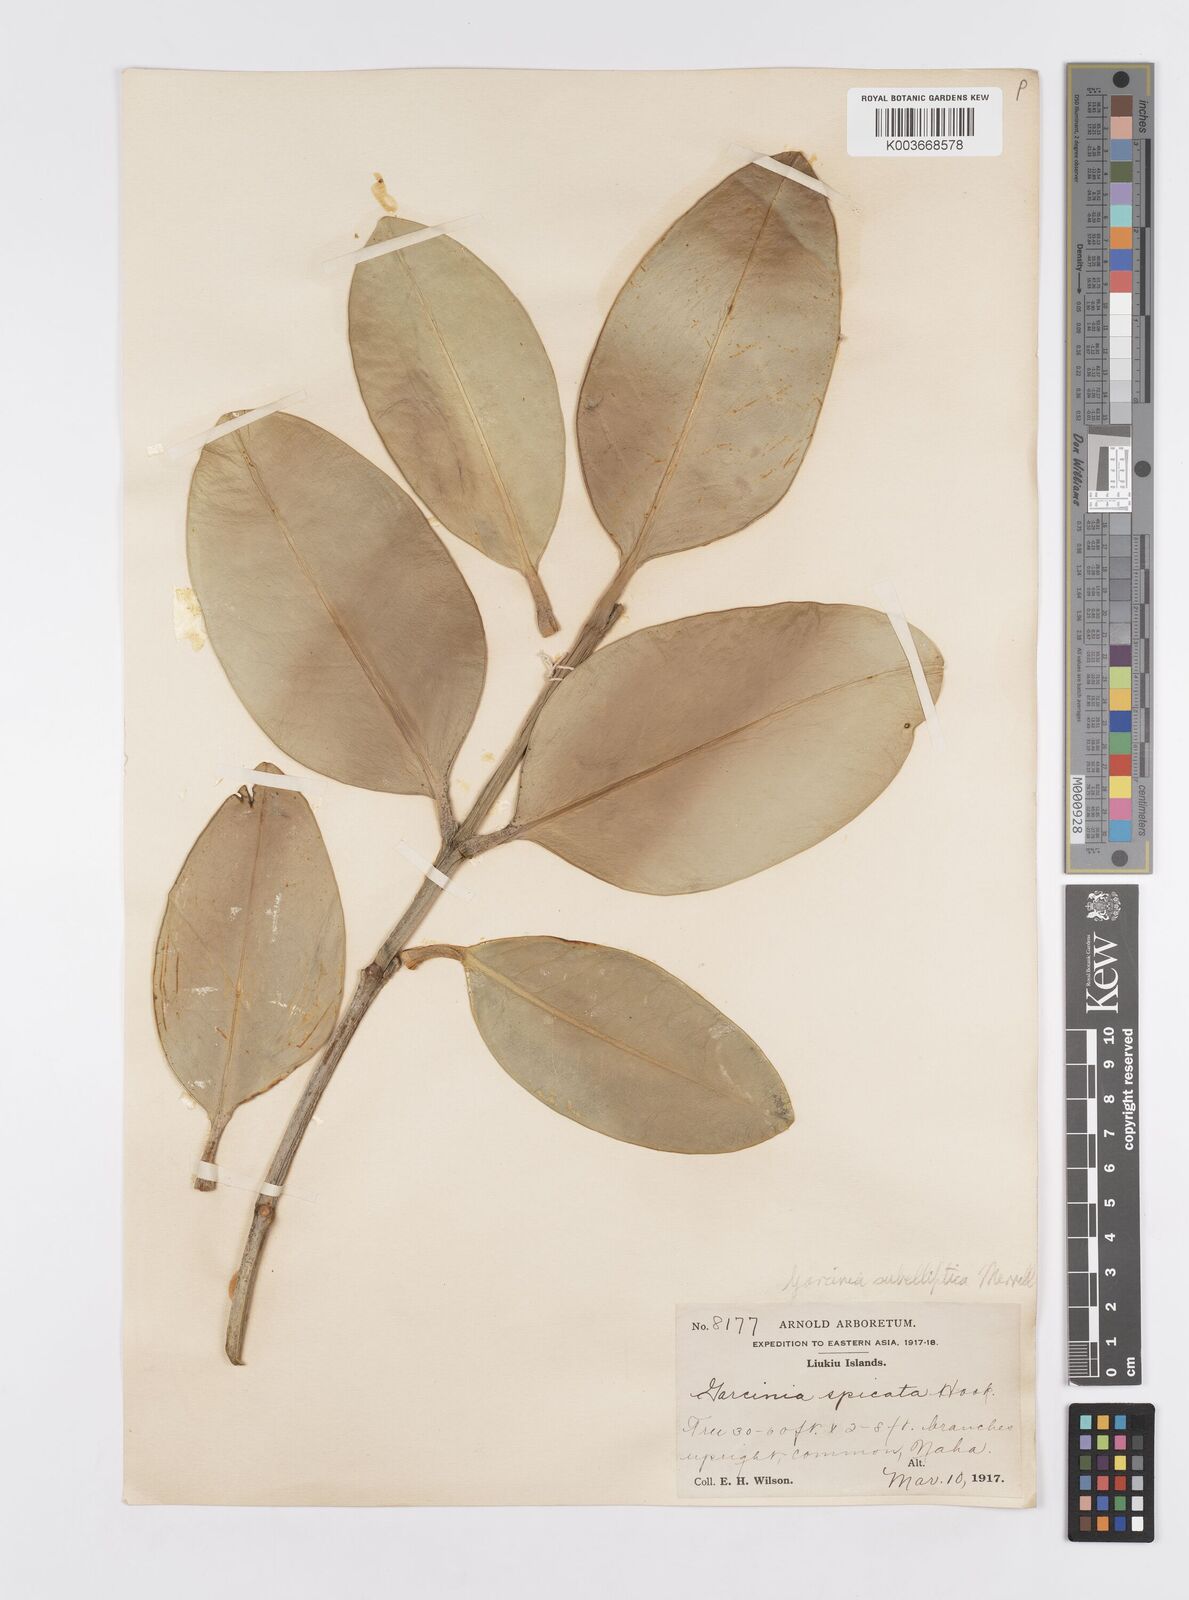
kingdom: Plantae
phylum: Tracheophyta
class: Magnoliopsida
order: Malpighiales
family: Clusiaceae
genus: Garcinia
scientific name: Garcinia subelliptica
